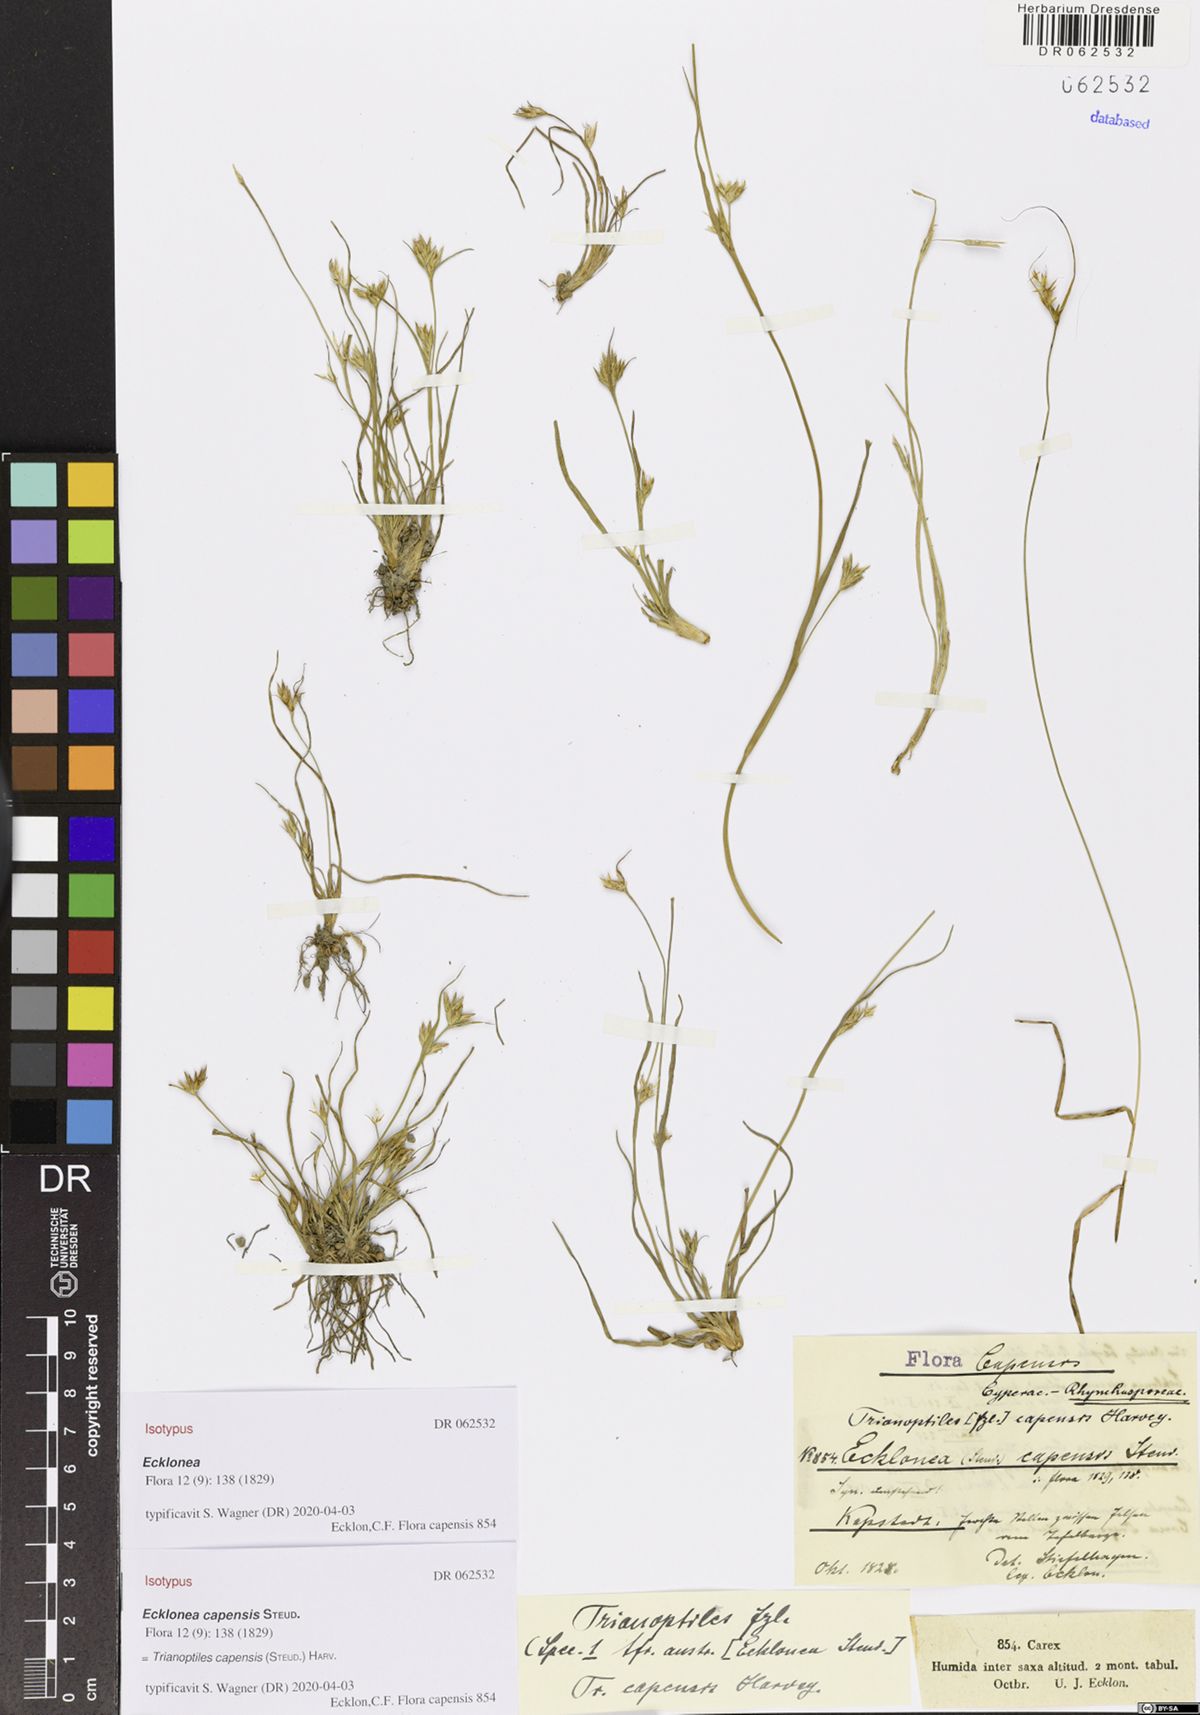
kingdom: Plantae
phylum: Tracheophyta
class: Liliopsida
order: Poales
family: Cyperaceae
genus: Trianoptiles
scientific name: Trianoptiles capensis
